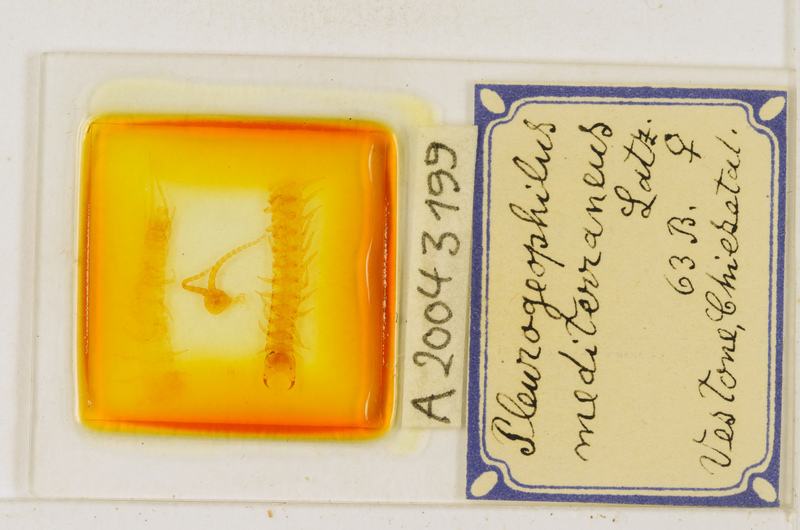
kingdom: Animalia
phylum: Arthropoda
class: Chilopoda
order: Geophilomorpha
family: Geophilidae
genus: Pleurogeophilus
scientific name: Pleurogeophilus mediterraneus
